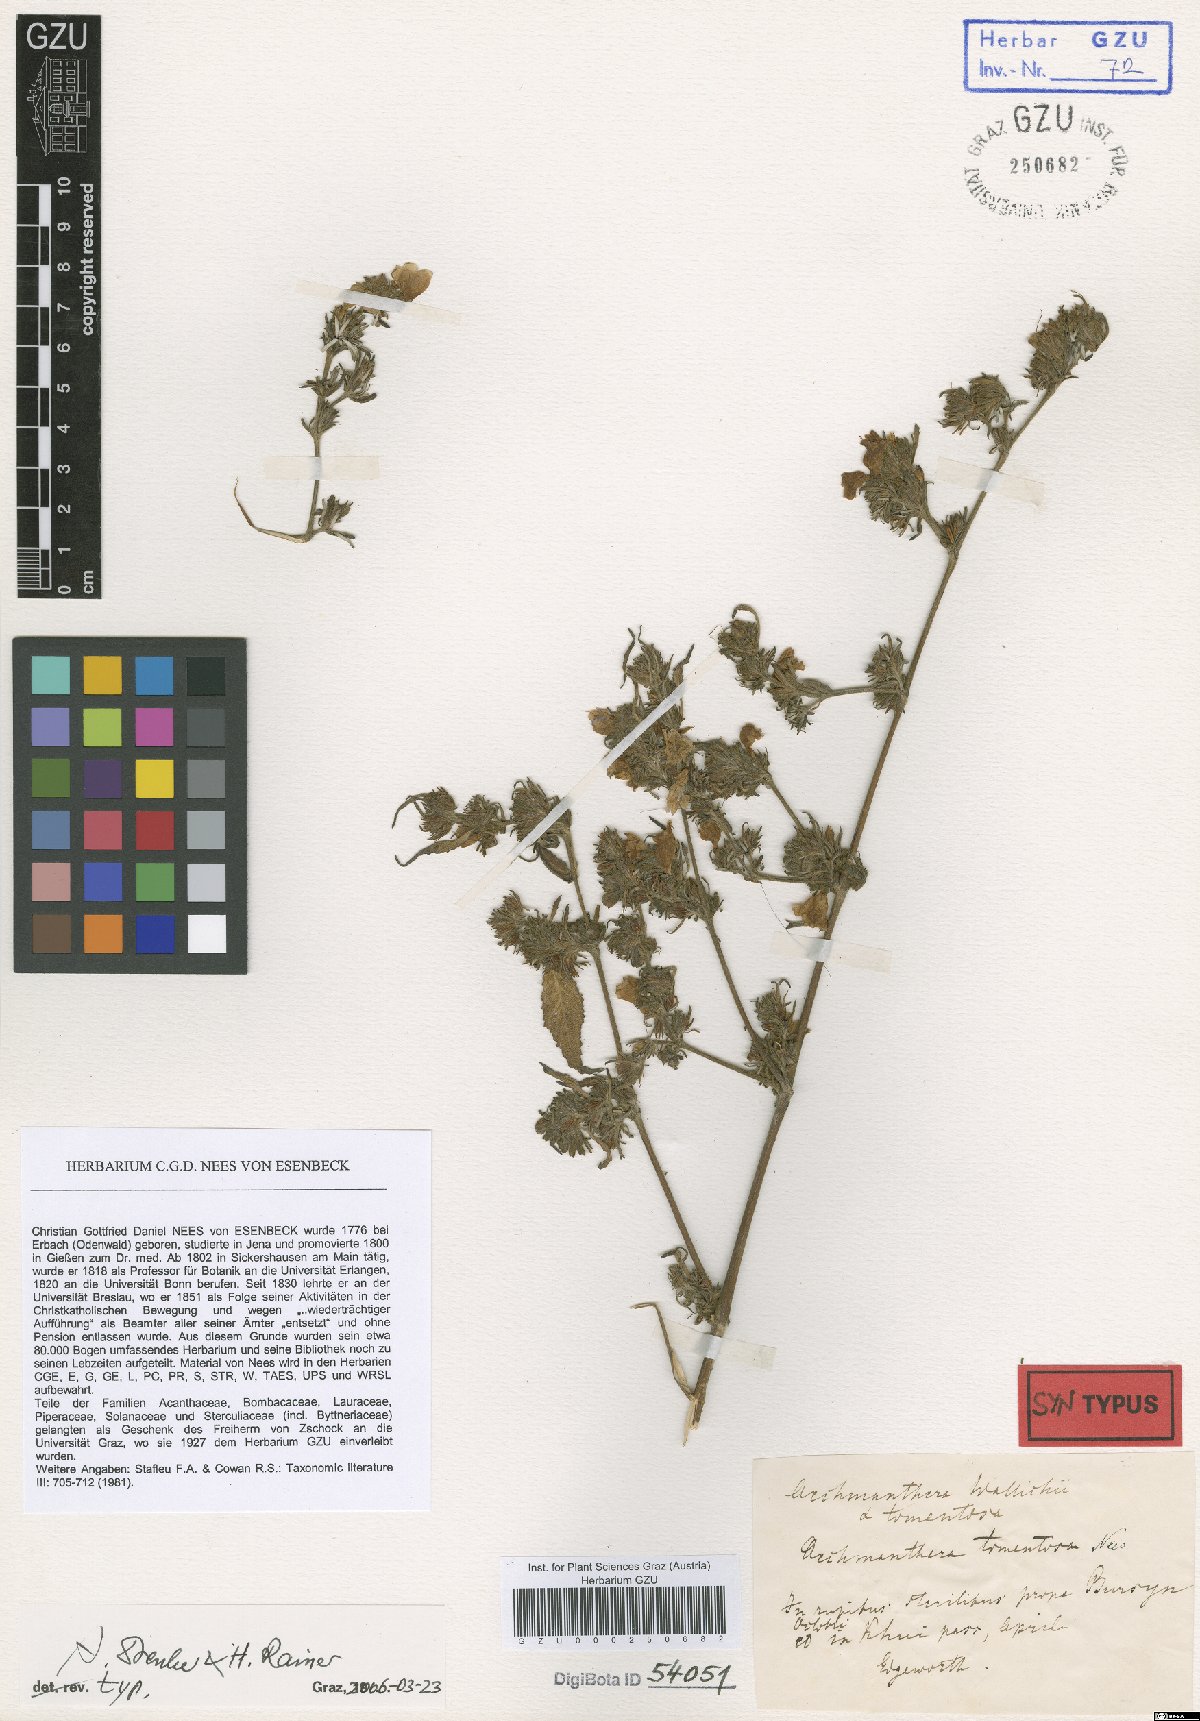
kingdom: Plantae
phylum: Tracheophyta
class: Magnoliopsida
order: Lamiales
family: Acanthaceae
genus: Strobilanthes
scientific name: Strobilanthes tomentosa
